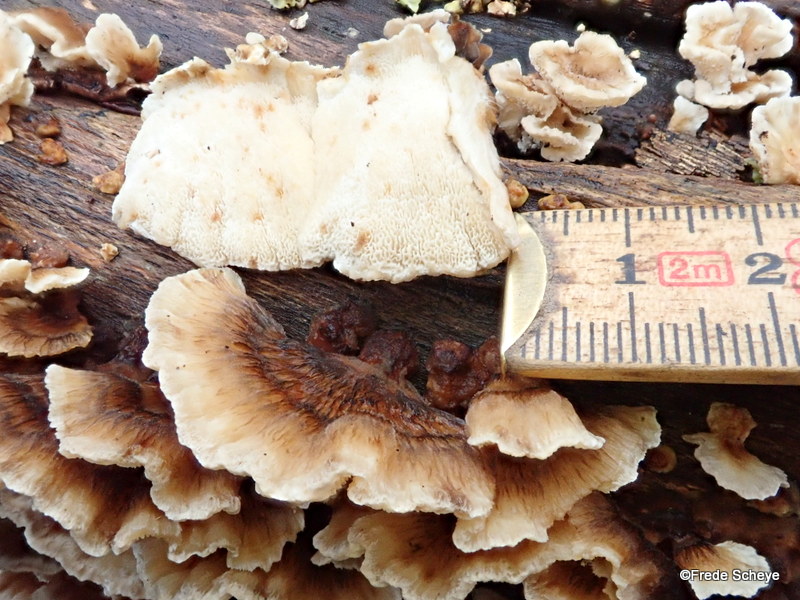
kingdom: Fungi
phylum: Basidiomycota
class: Agaricomycetes
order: Polyporales
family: Polyporaceae
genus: Trametes
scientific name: Trametes hirsuta
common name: håret læderporesvamp
